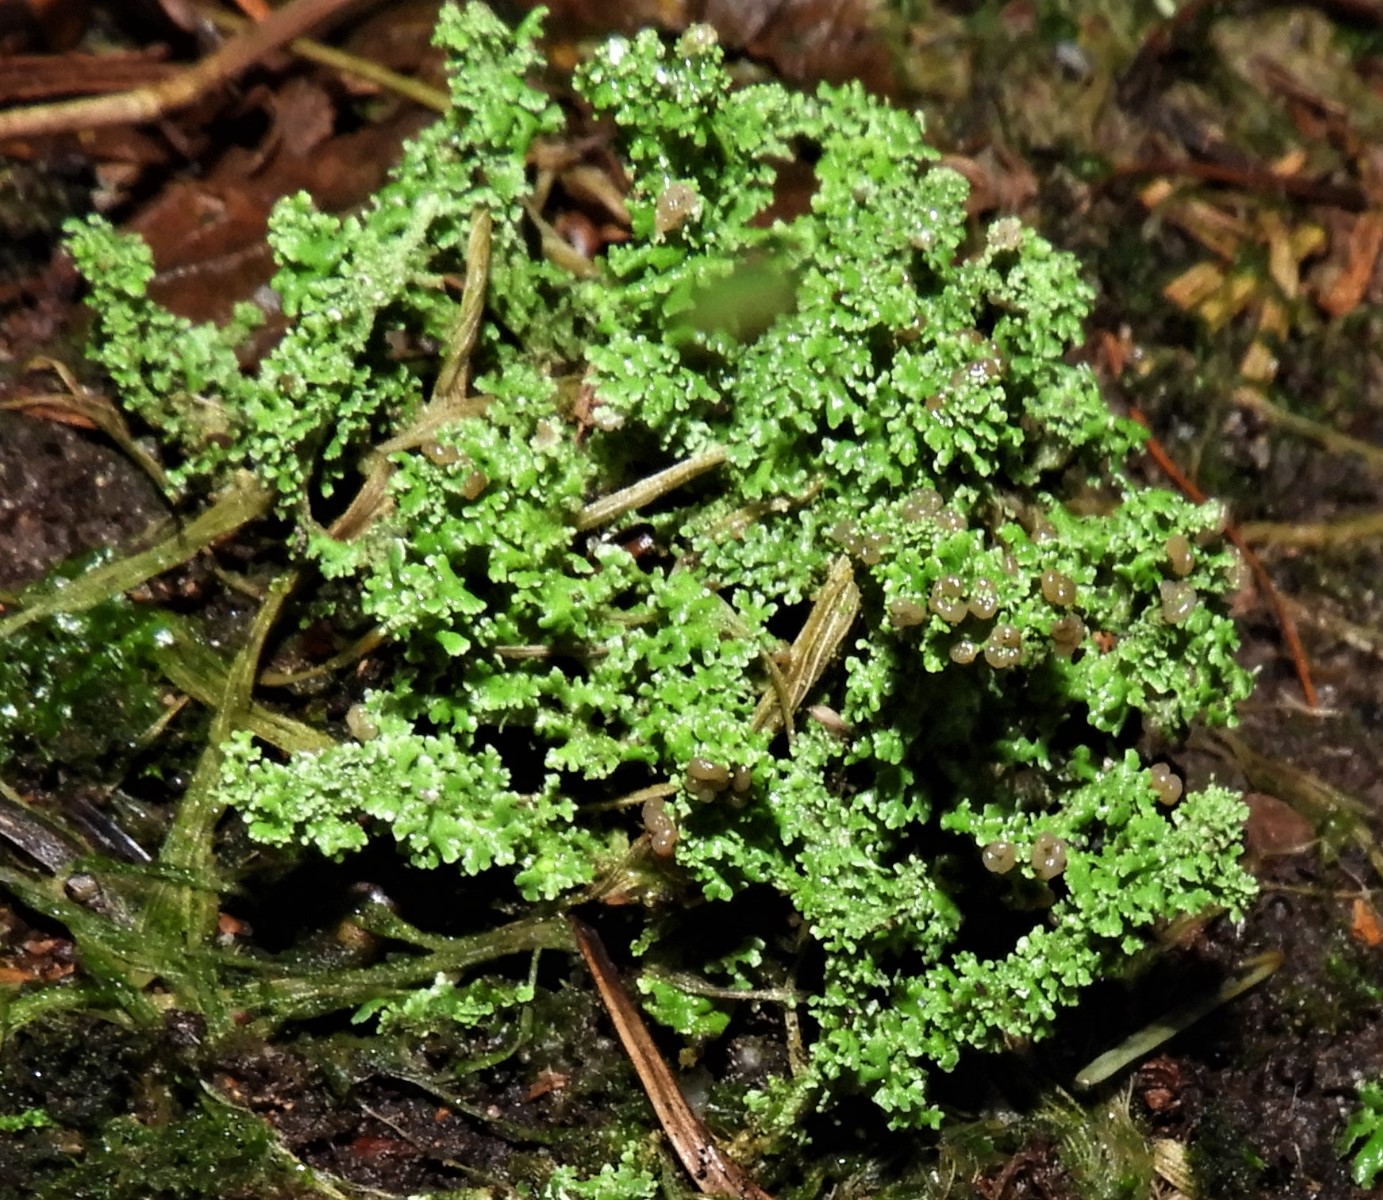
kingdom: Fungi
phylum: Ascomycota
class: Lecanoromycetes
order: Lecanorales
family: Cladoniaceae
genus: Cladonia
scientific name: Cladonia
